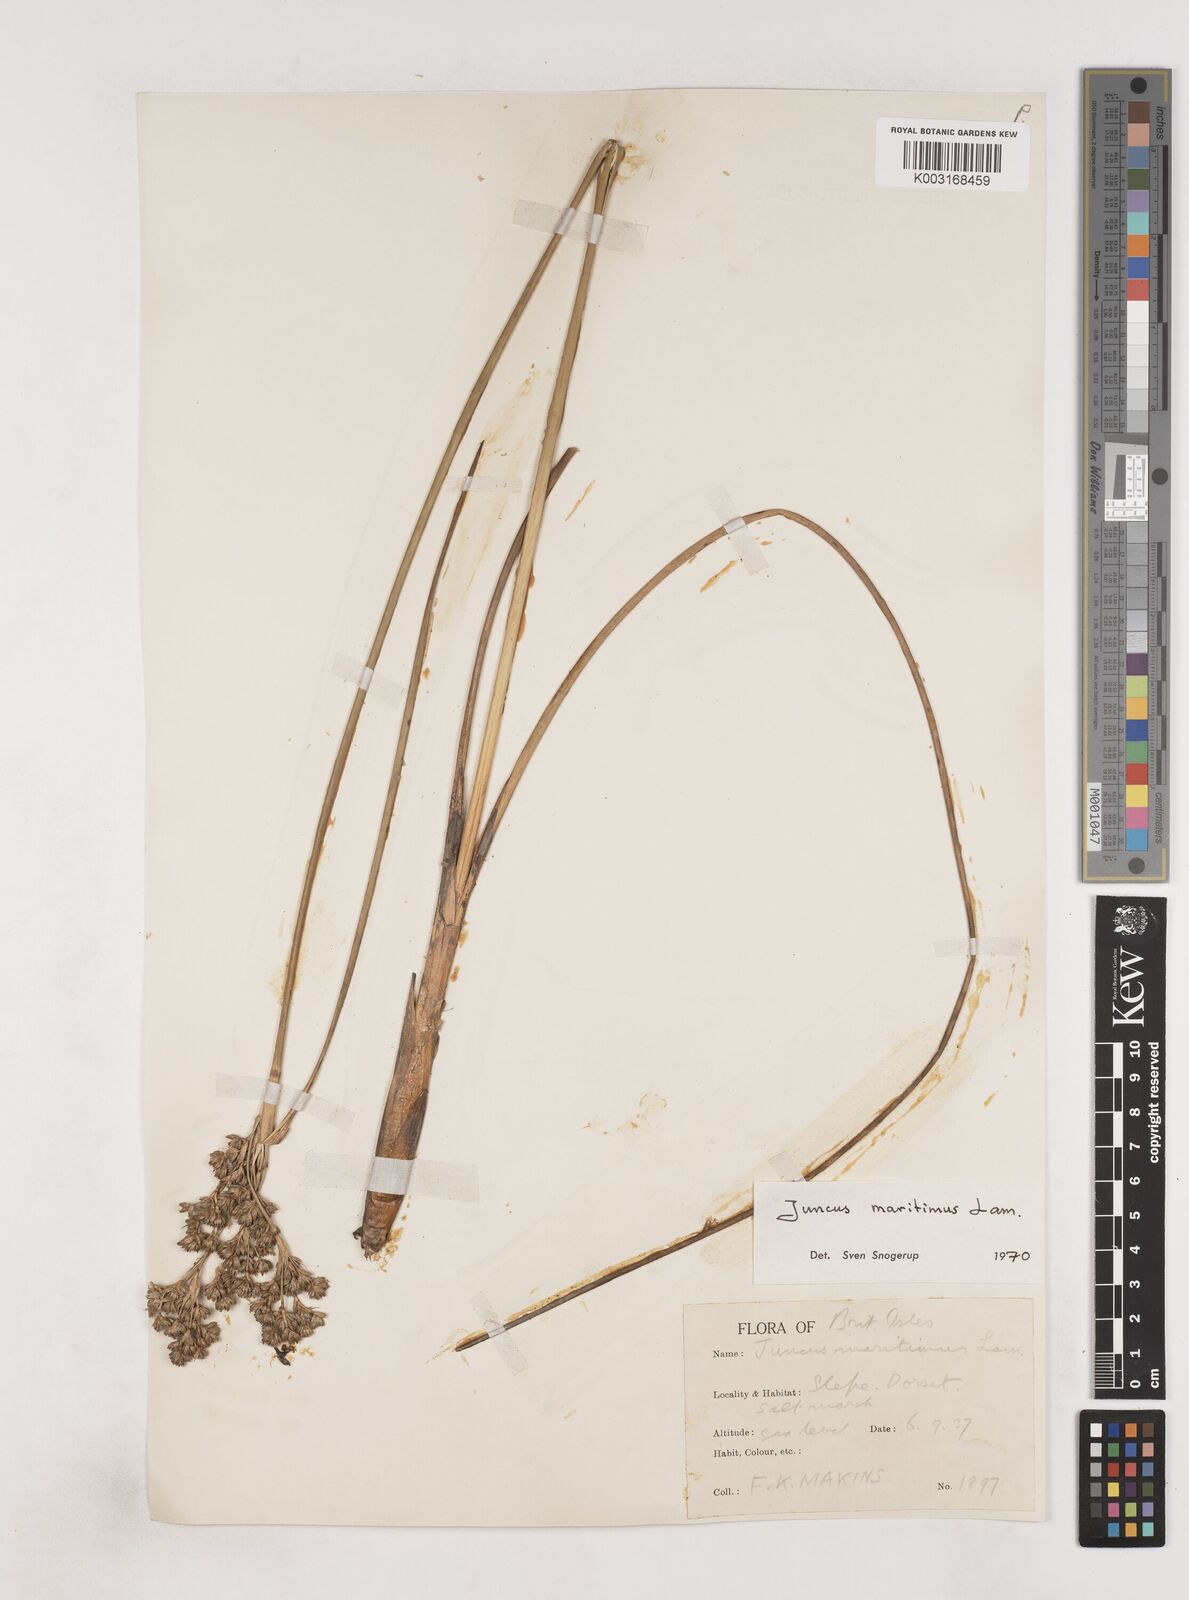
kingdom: Plantae
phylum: Tracheophyta
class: Liliopsida
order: Poales
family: Juncaceae
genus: Juncus
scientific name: Juncus maritimus
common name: Sea rush
